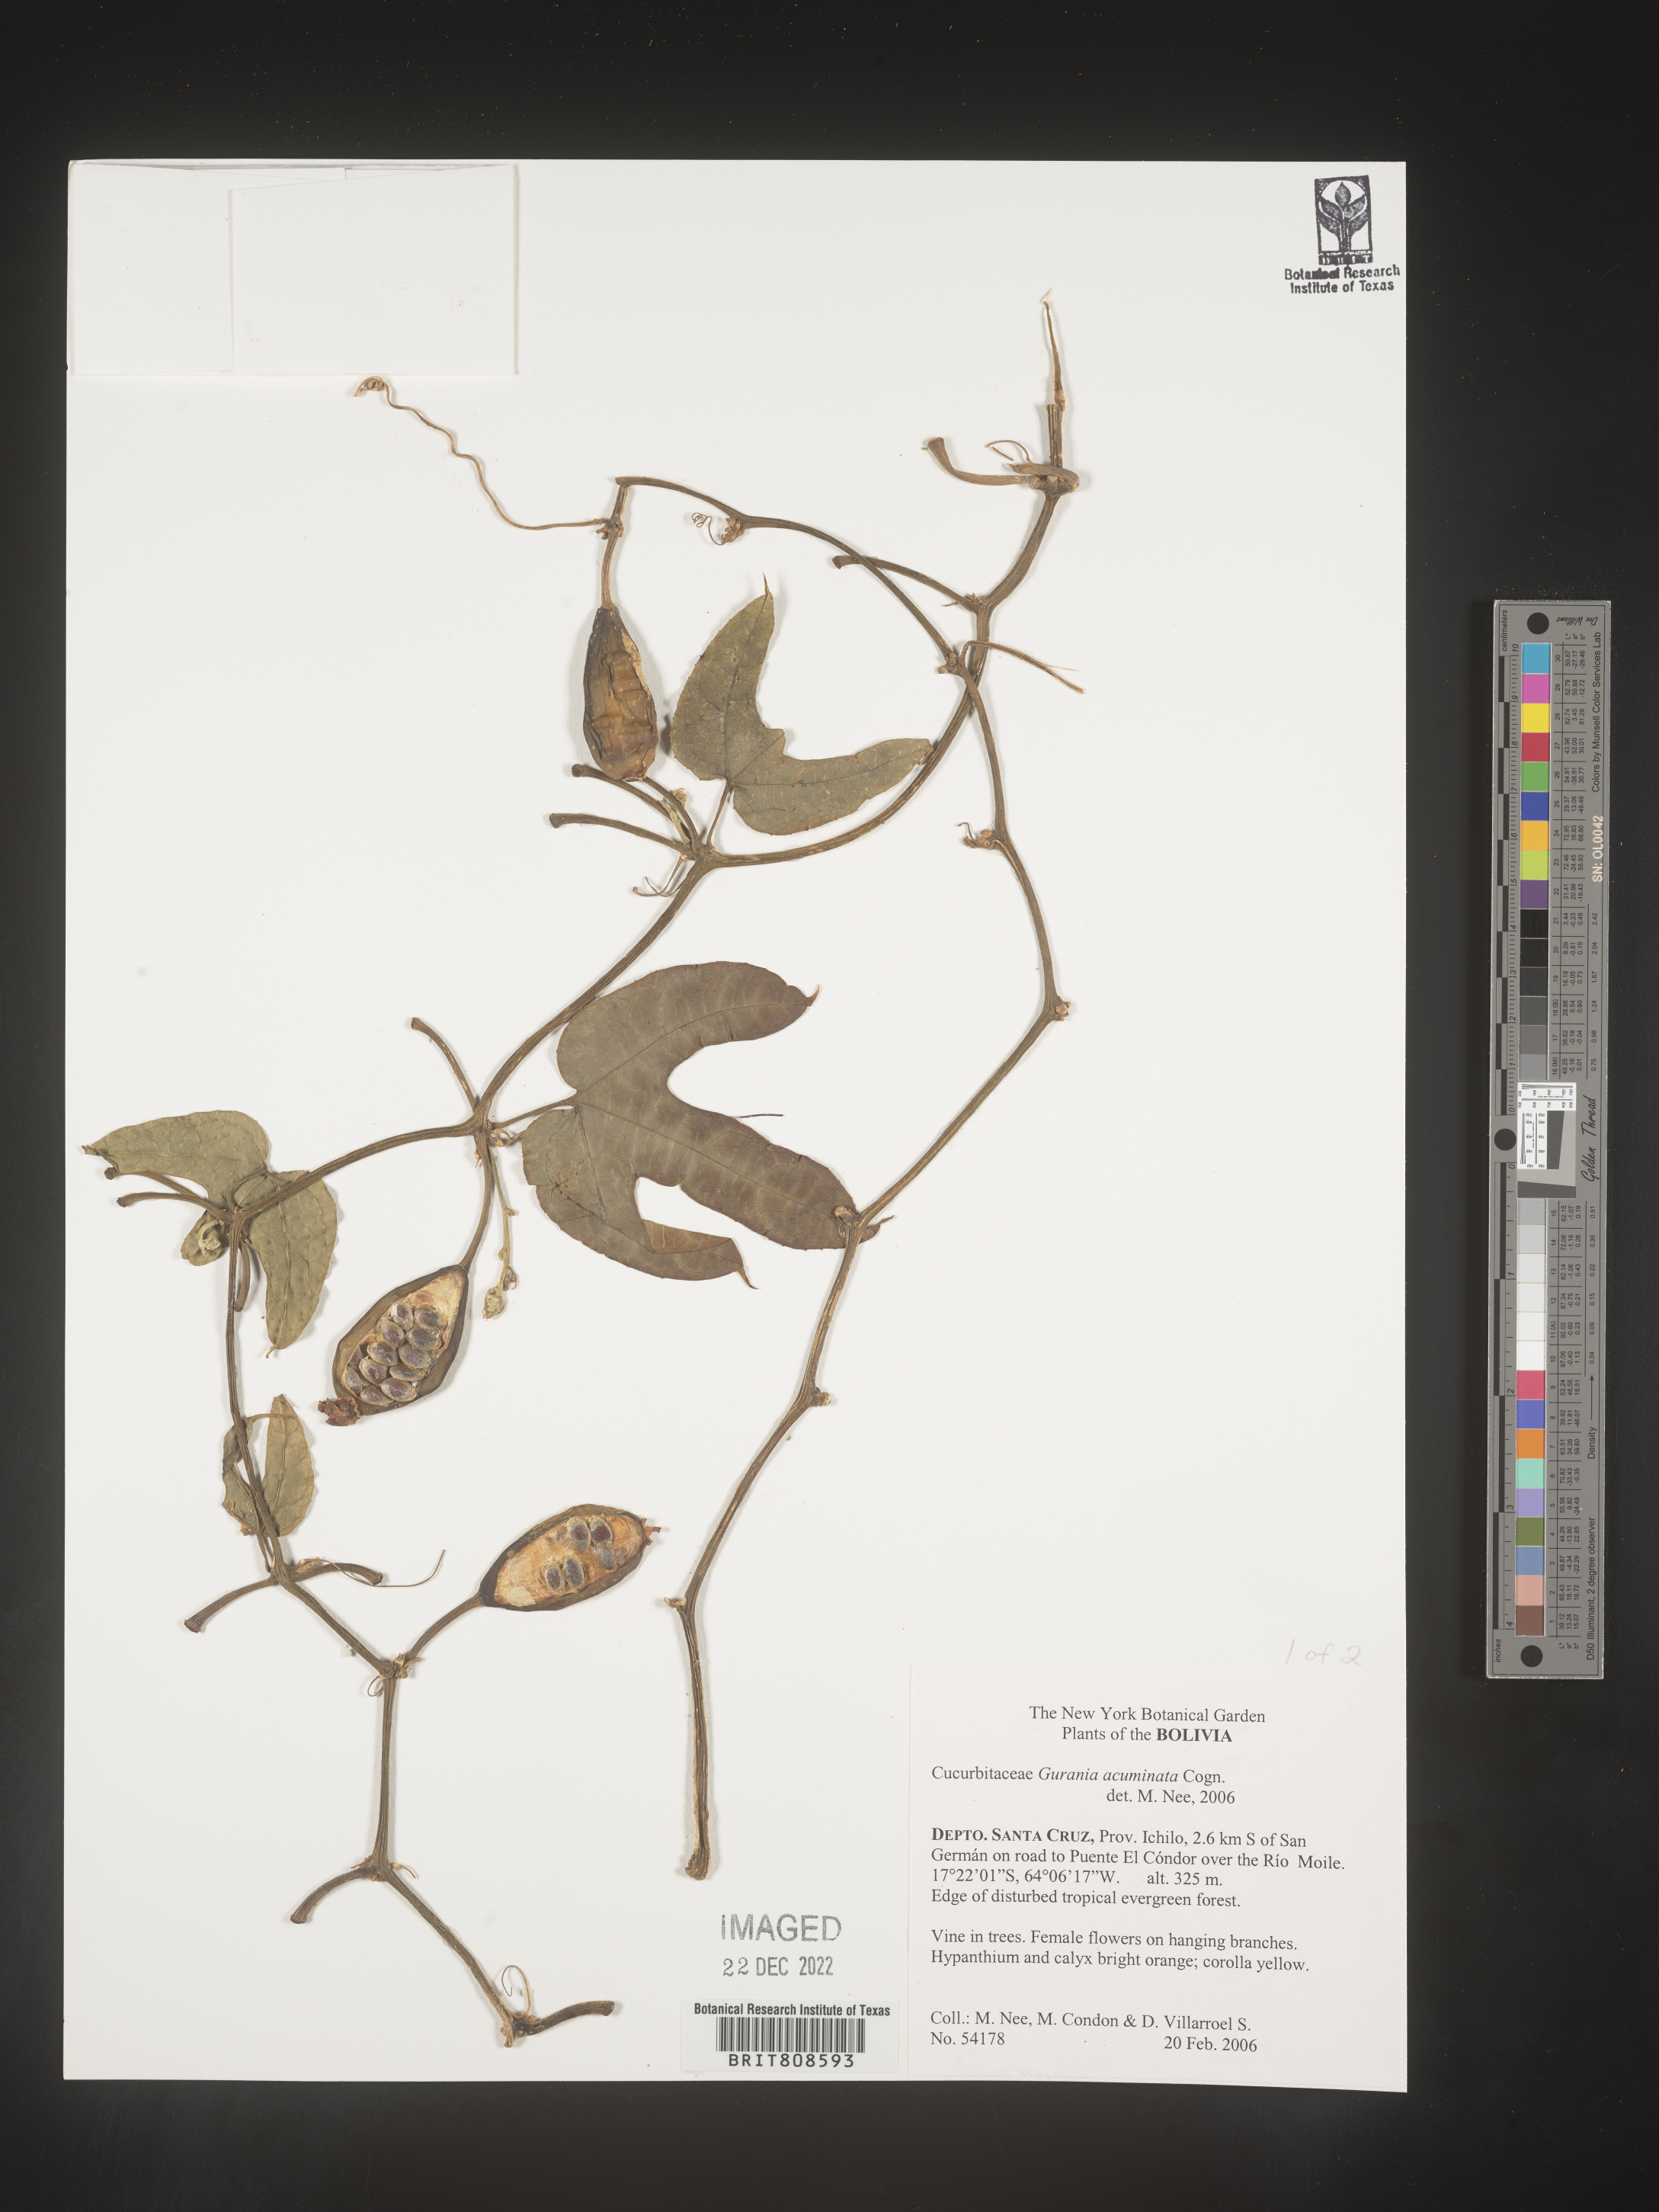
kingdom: Plantae
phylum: Tracheophyta
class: Magnoliopsida
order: Cucurbitales
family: Cucurbitaceae
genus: Gurania
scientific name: Gurania
